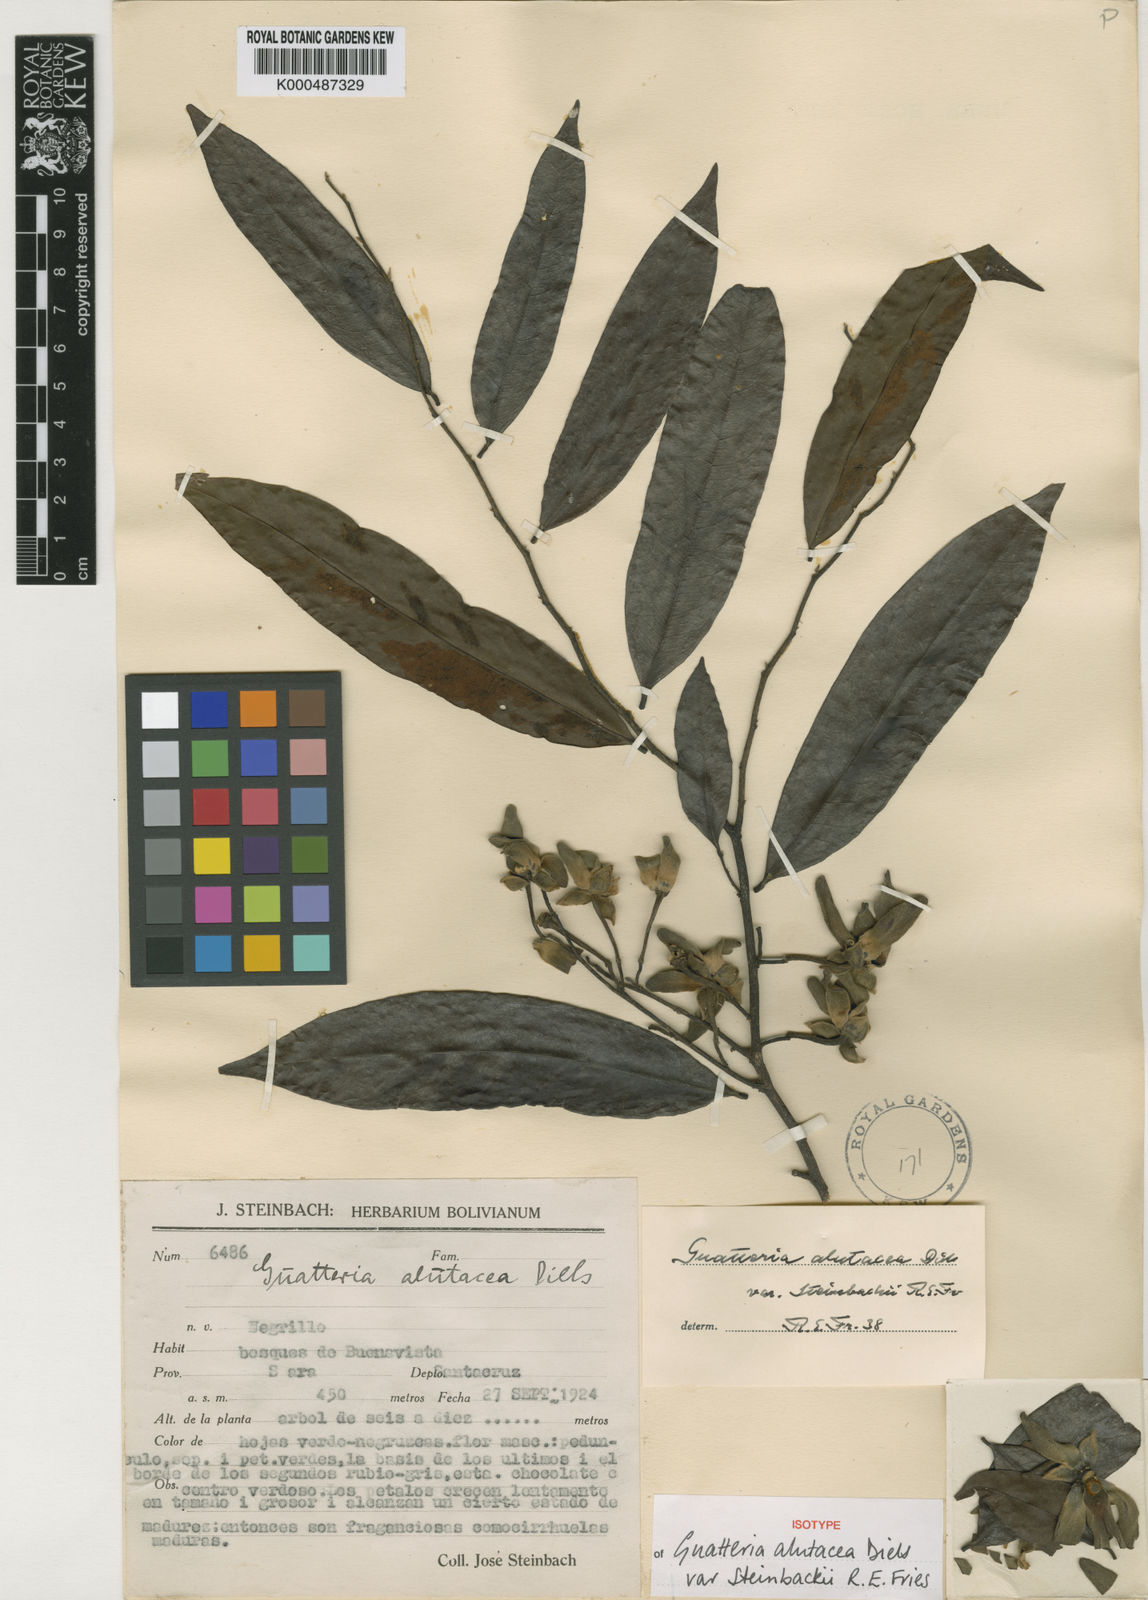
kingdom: Plantae
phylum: Tracheophyta
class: Magnoliopsida
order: Magnoliales
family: Annonaceae
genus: Guatteria
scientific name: Guatteria alutacea
